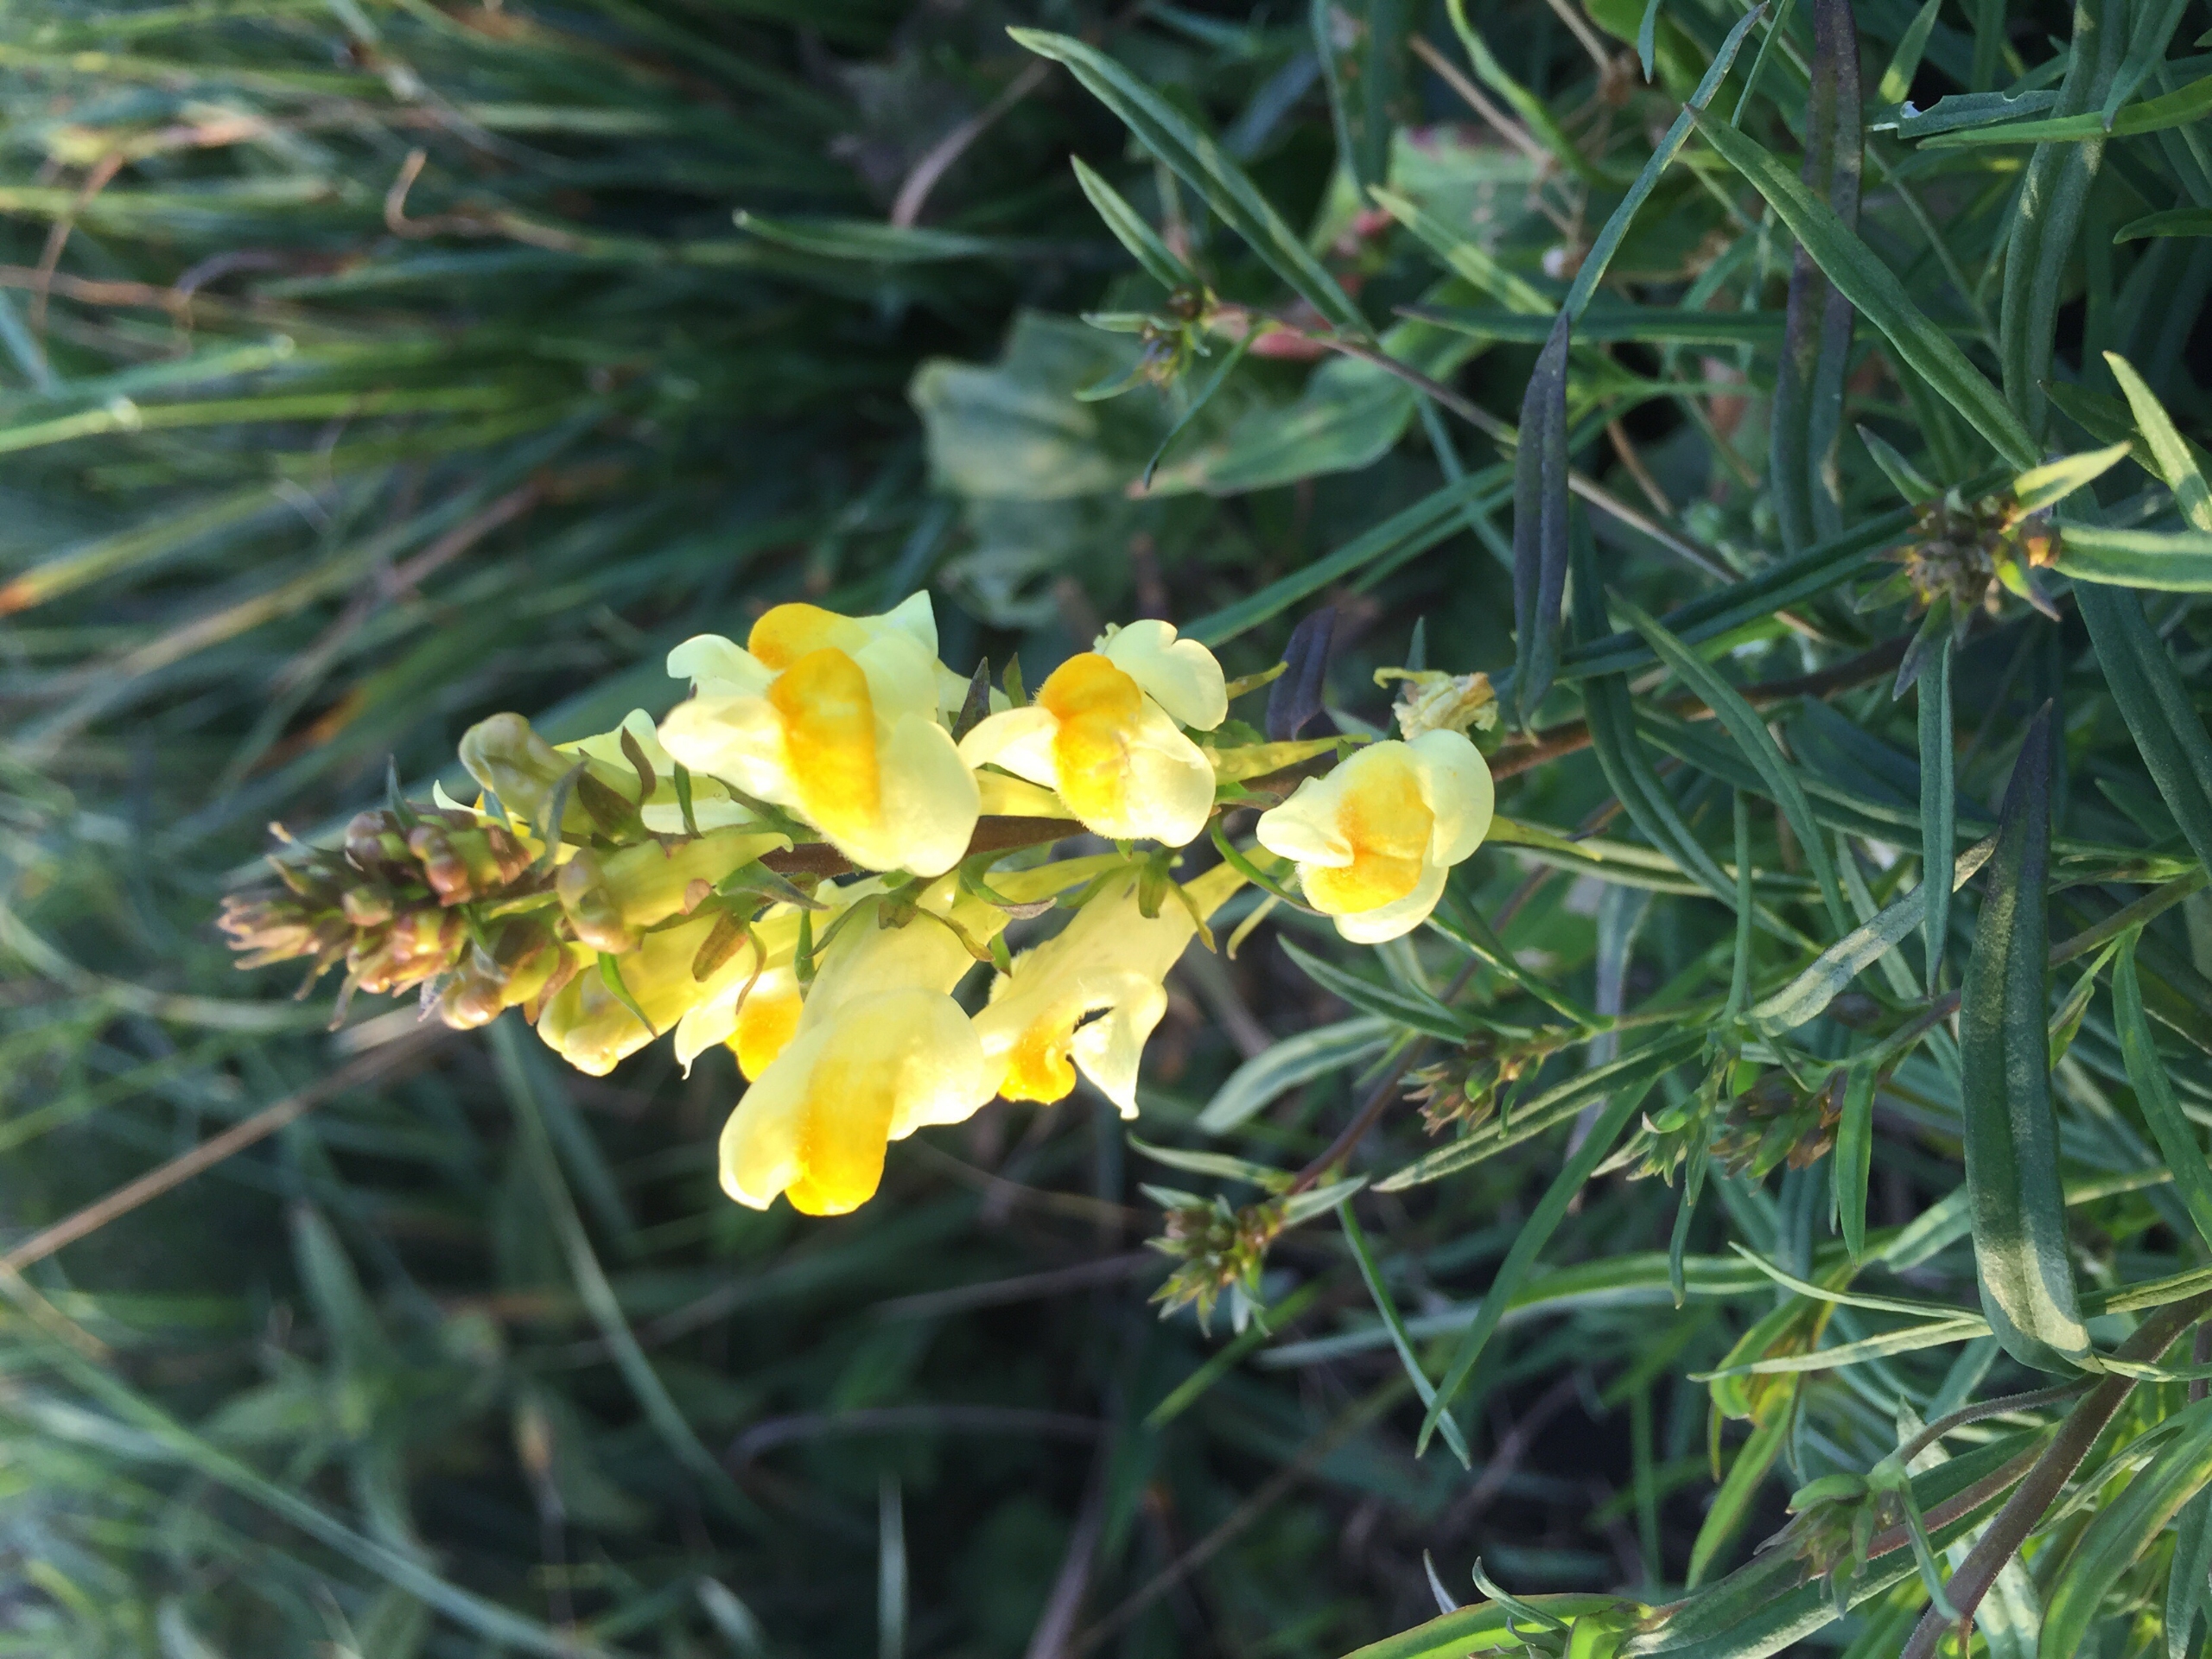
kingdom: Plantae
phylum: Tracheophyta
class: Magnoliopsida
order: Lamiales
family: Plantaginaceae
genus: Linaria
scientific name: Linaria vulgaris
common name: Almindelig torskemund
